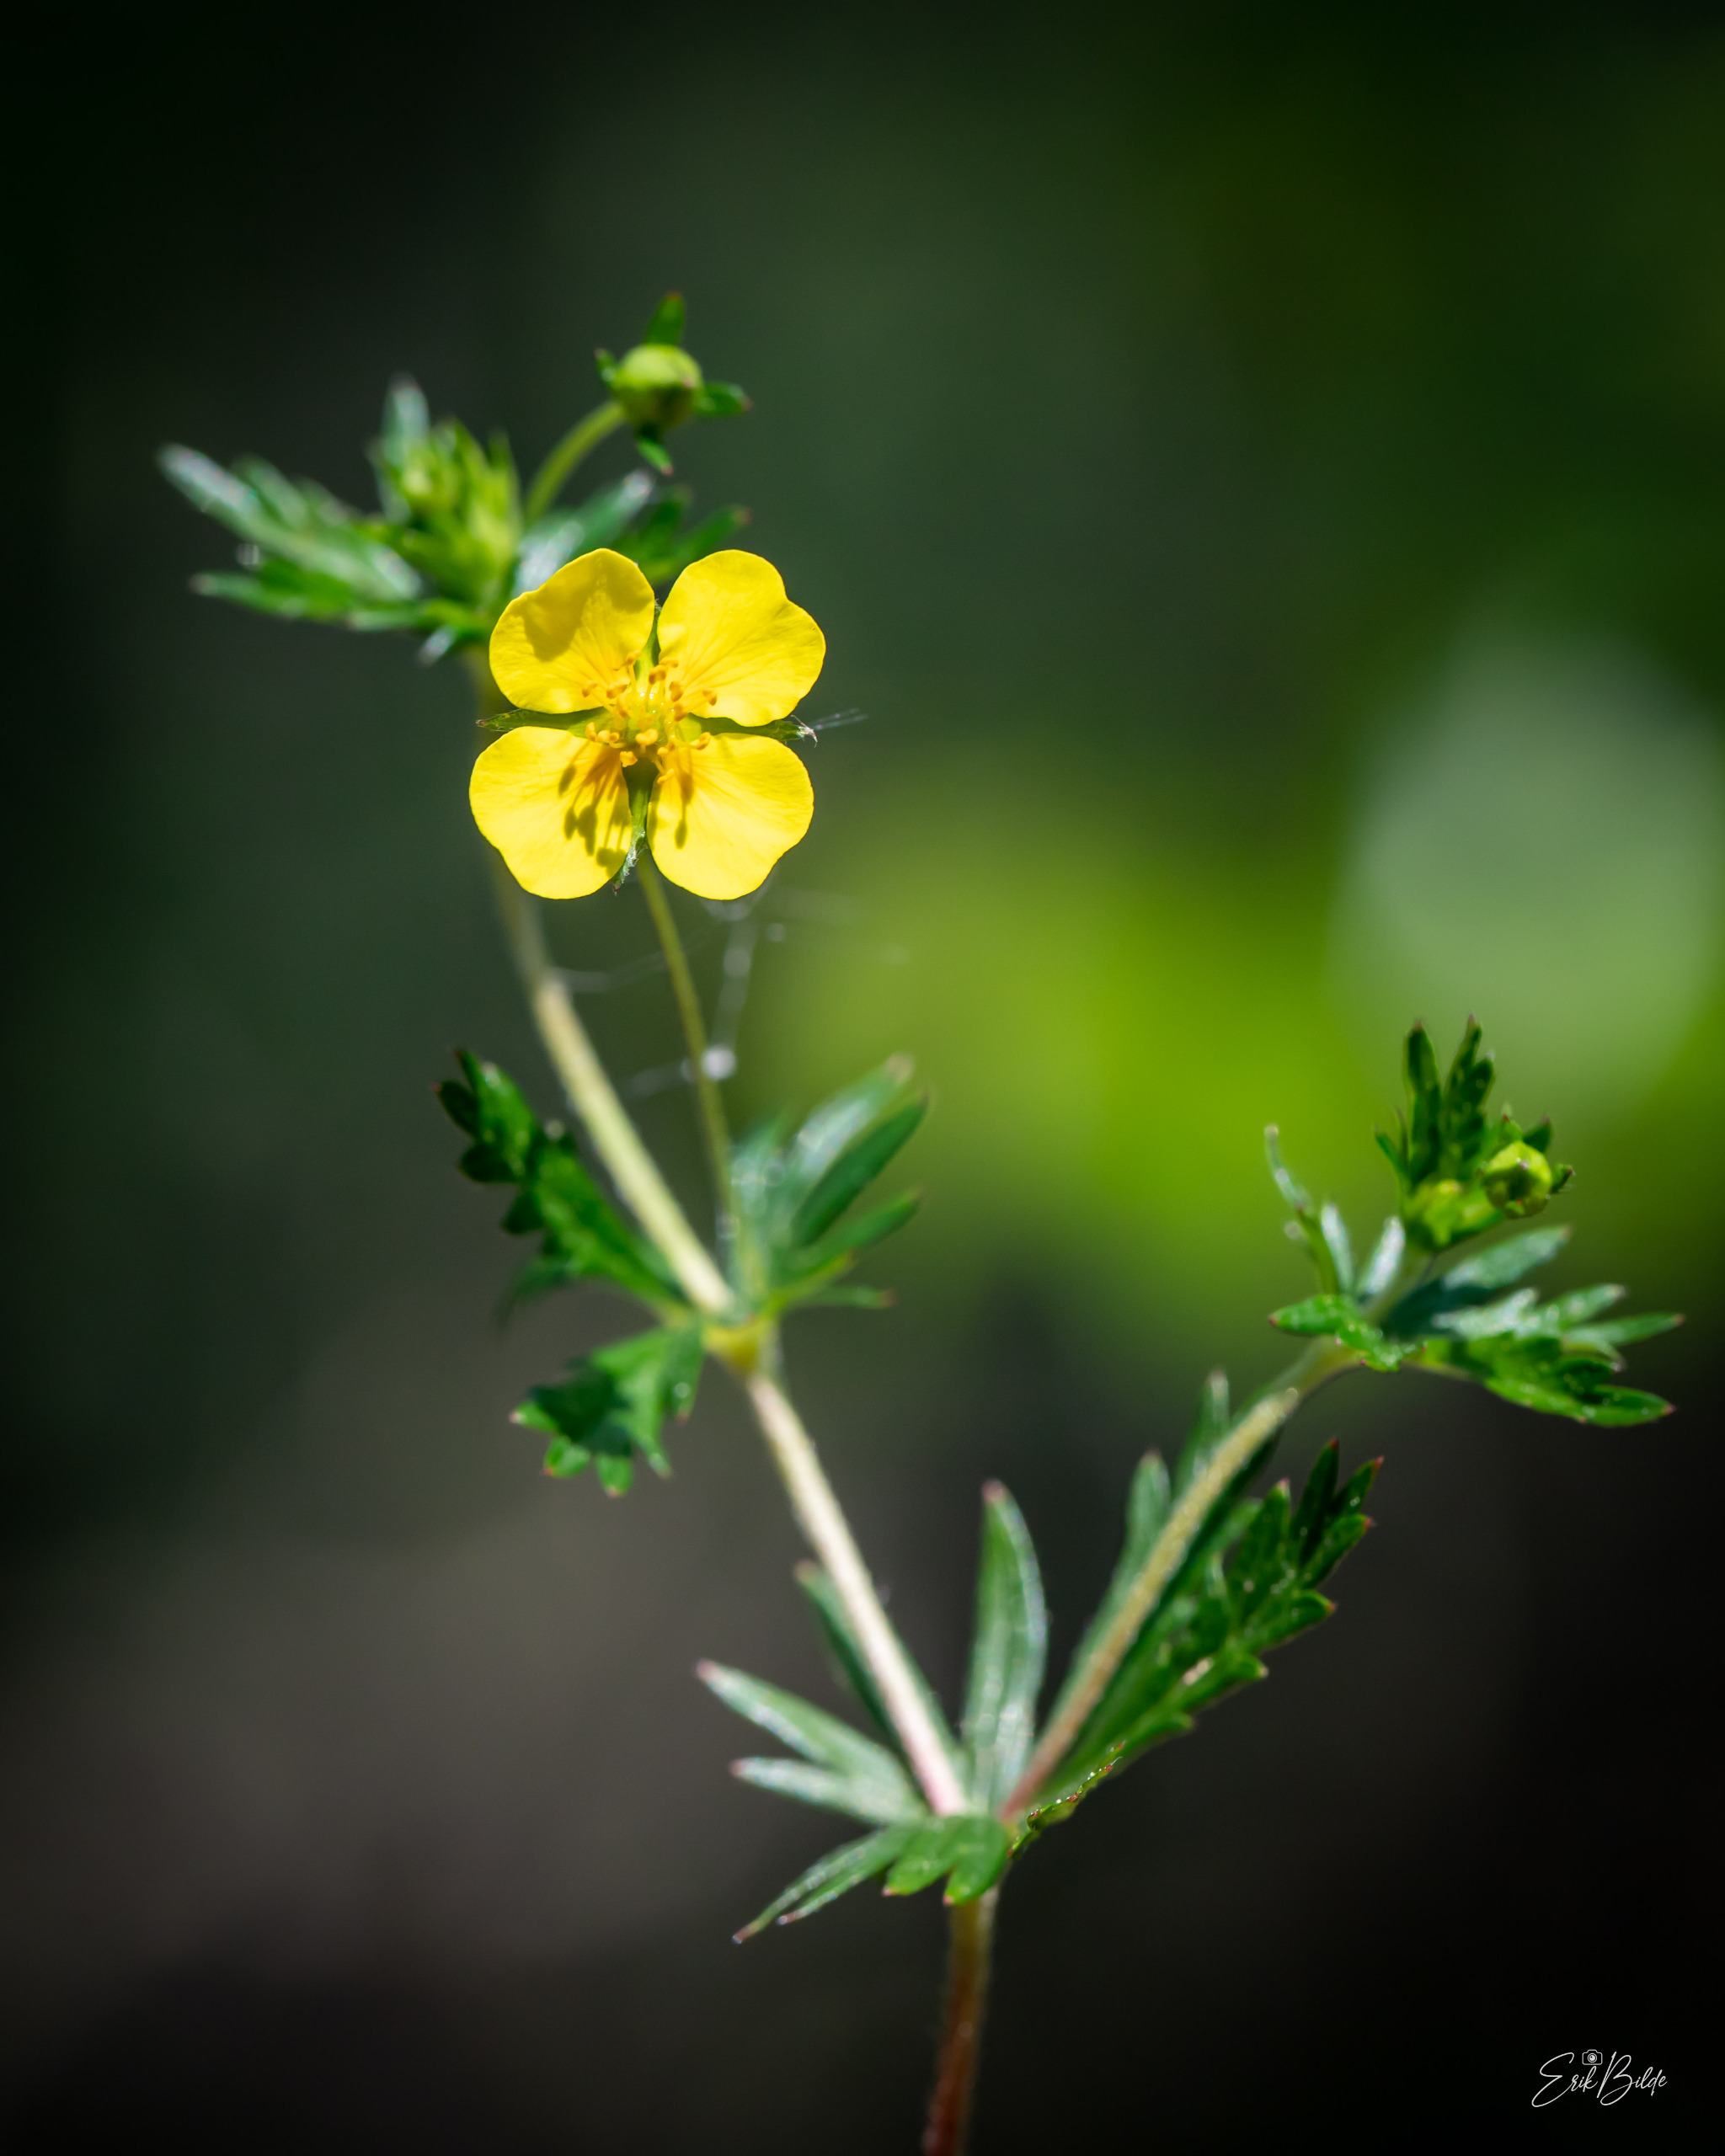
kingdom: Plantae
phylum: Tracheophyta
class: Magnoliopsida
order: Rosales
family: Rosaceae
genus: Potentilla
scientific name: Potentilla erecta
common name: Tormentil
